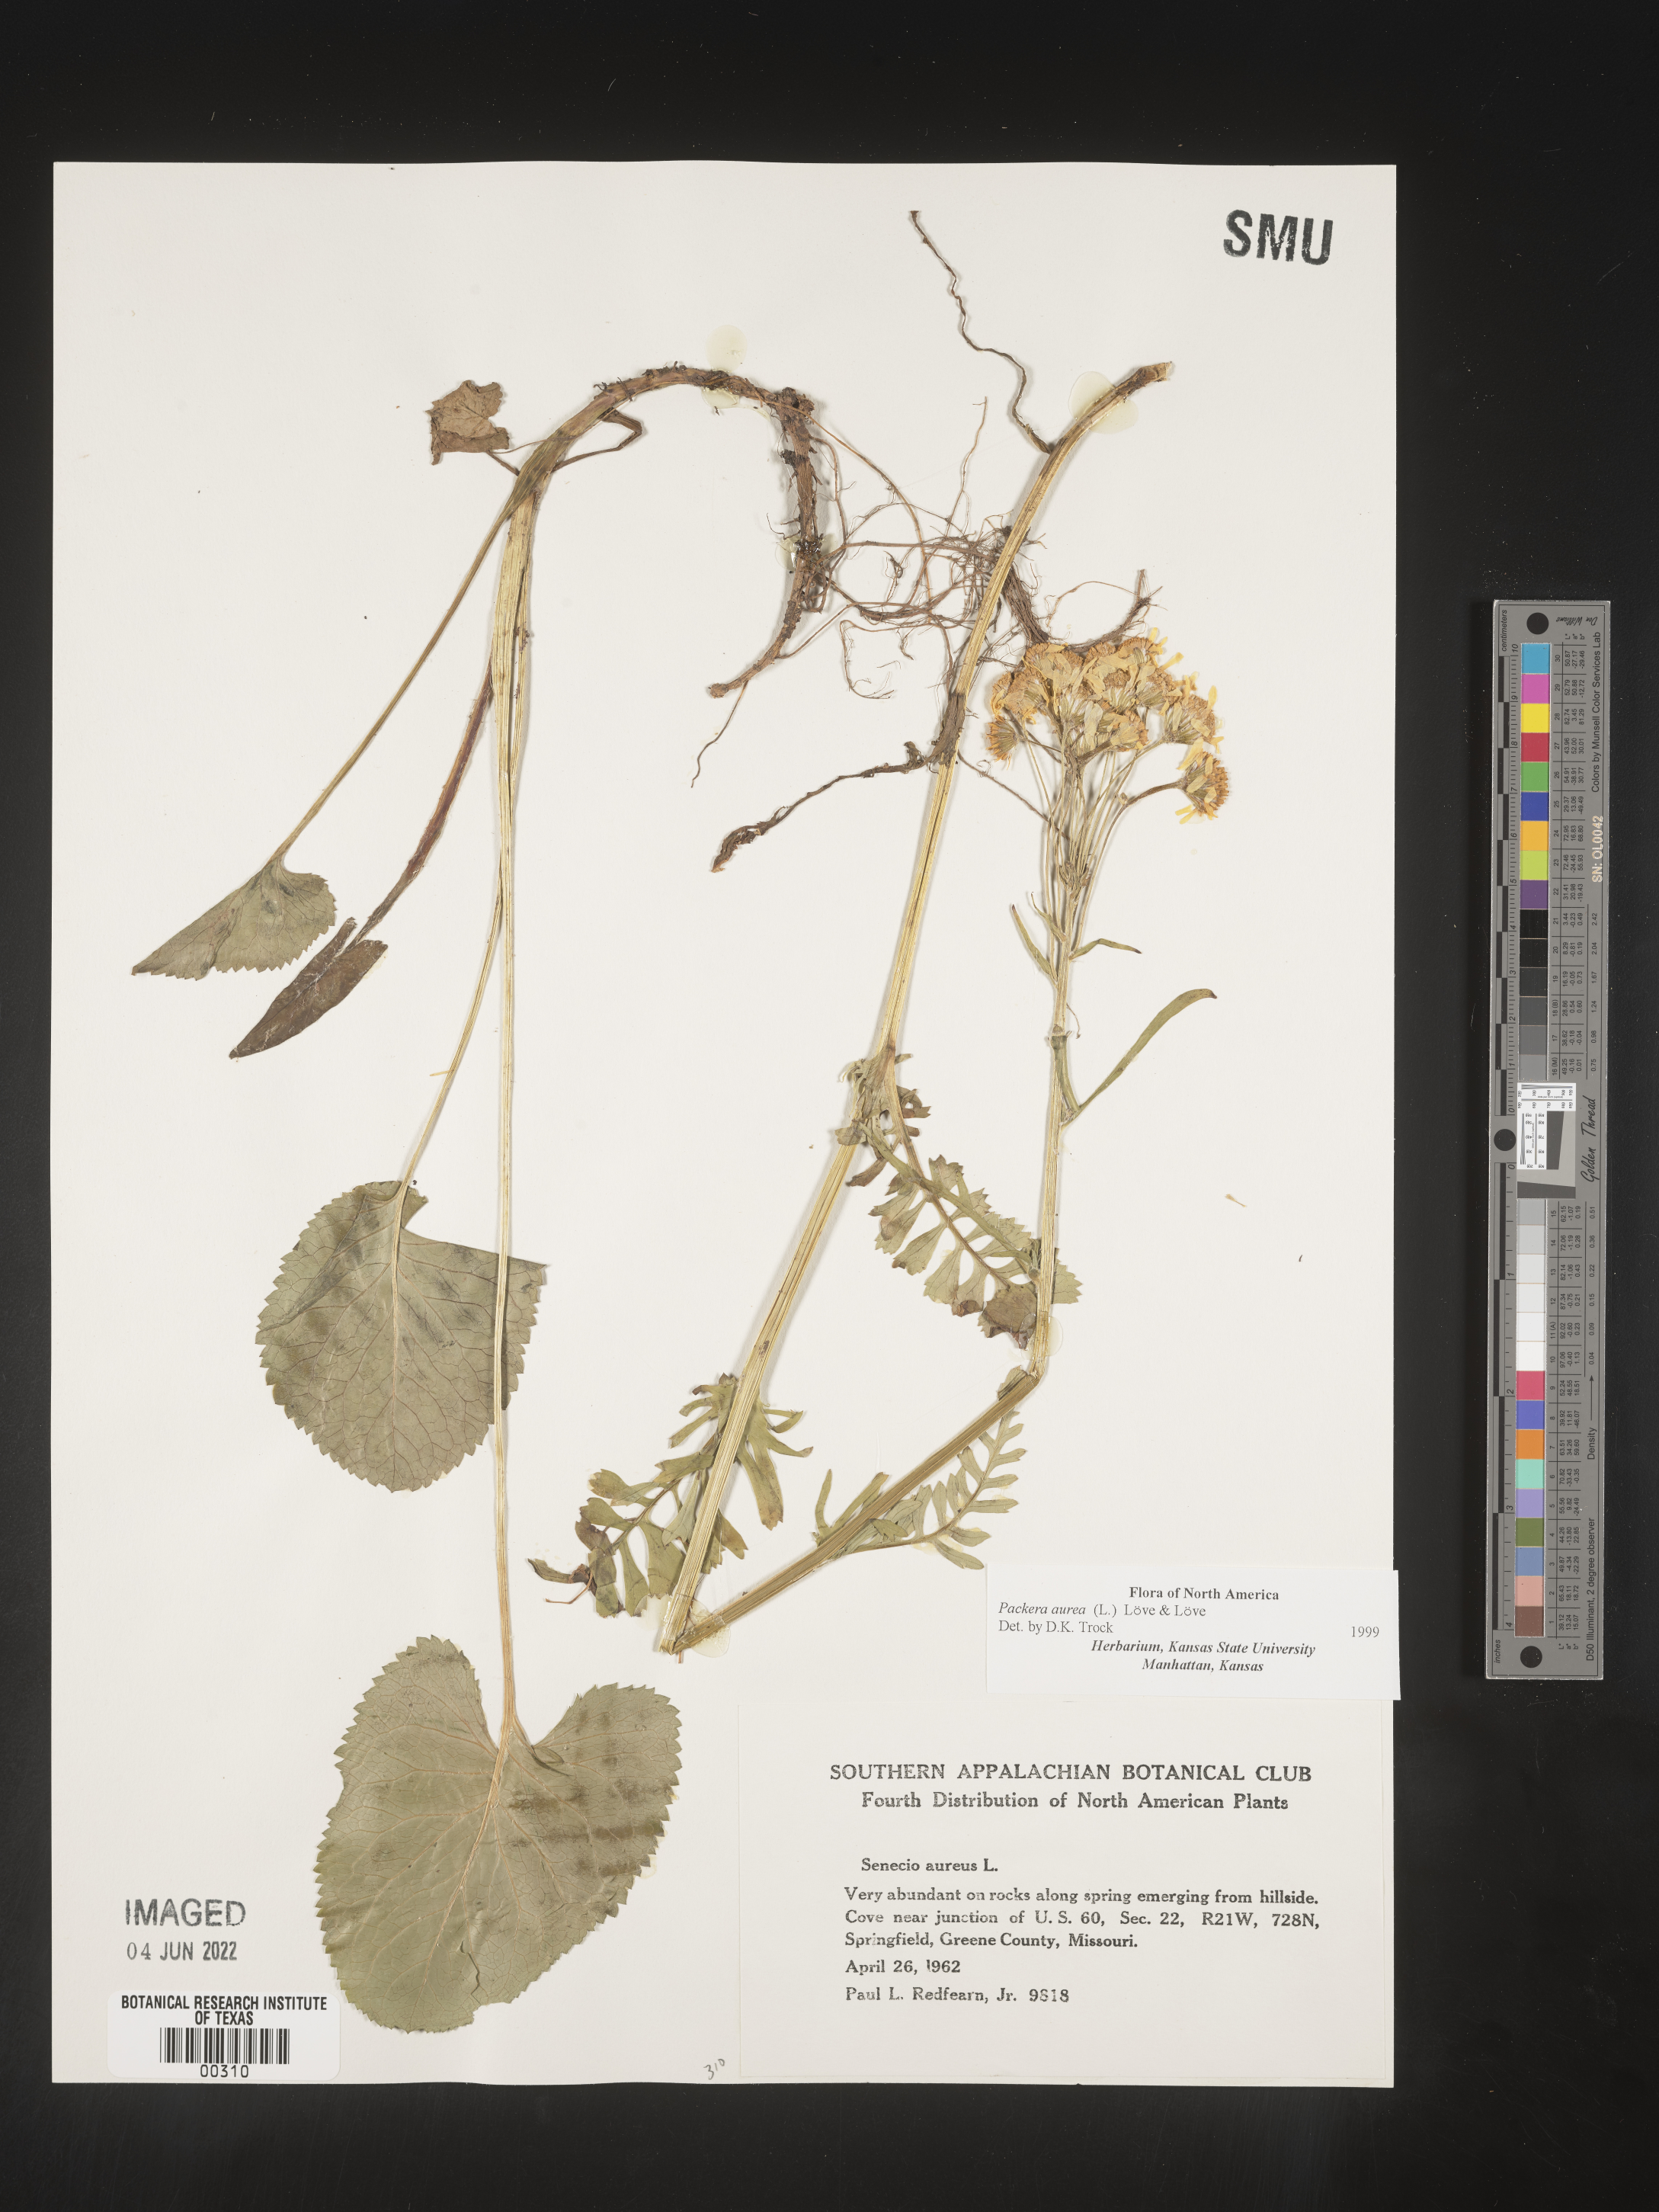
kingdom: Plantae
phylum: Tracheophyta
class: Magnoliopsida
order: Asterales
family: Asteraceae
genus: Packera
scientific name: Packera aurea
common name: Golden groundsel
